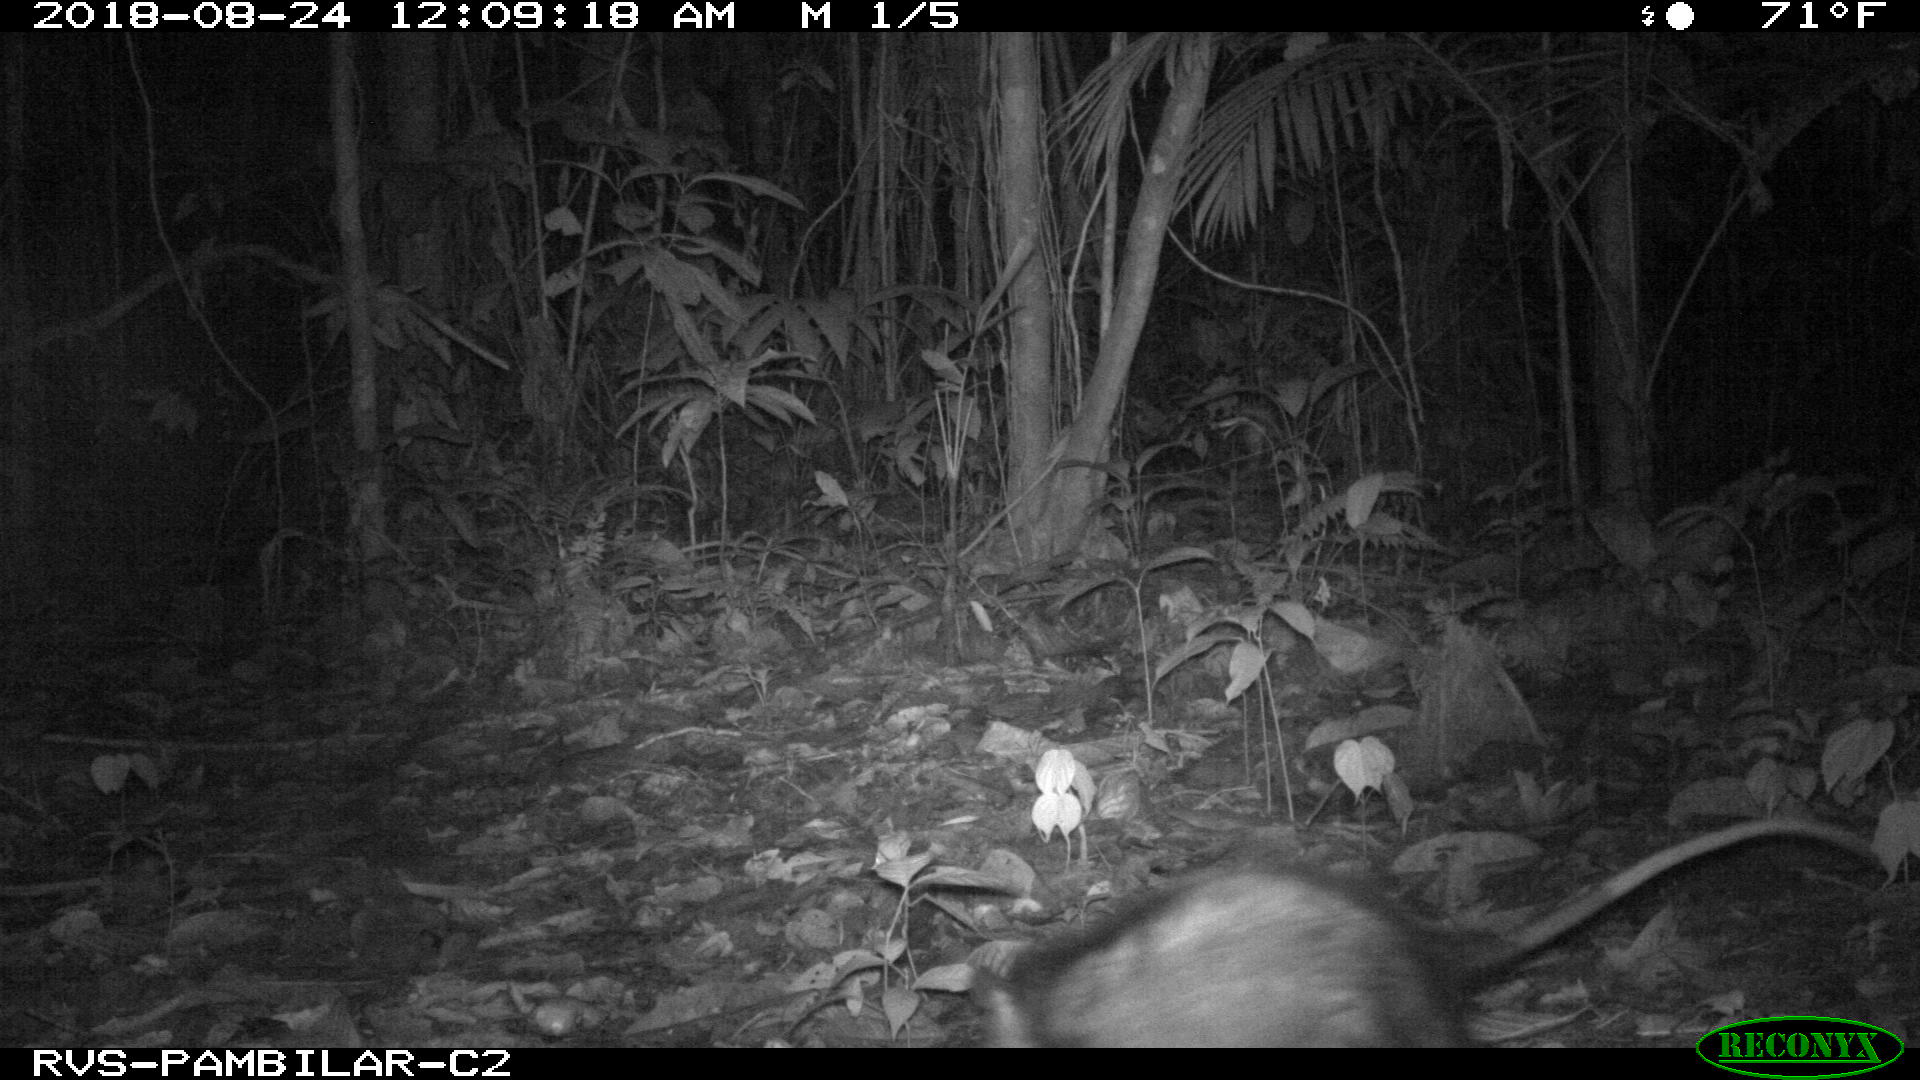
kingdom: Animalia
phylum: Chordata
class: Mammalia
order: Didelphimorphia
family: Didelphidae
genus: Didelphis
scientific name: Didelphis marsupialis
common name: Common opossum
